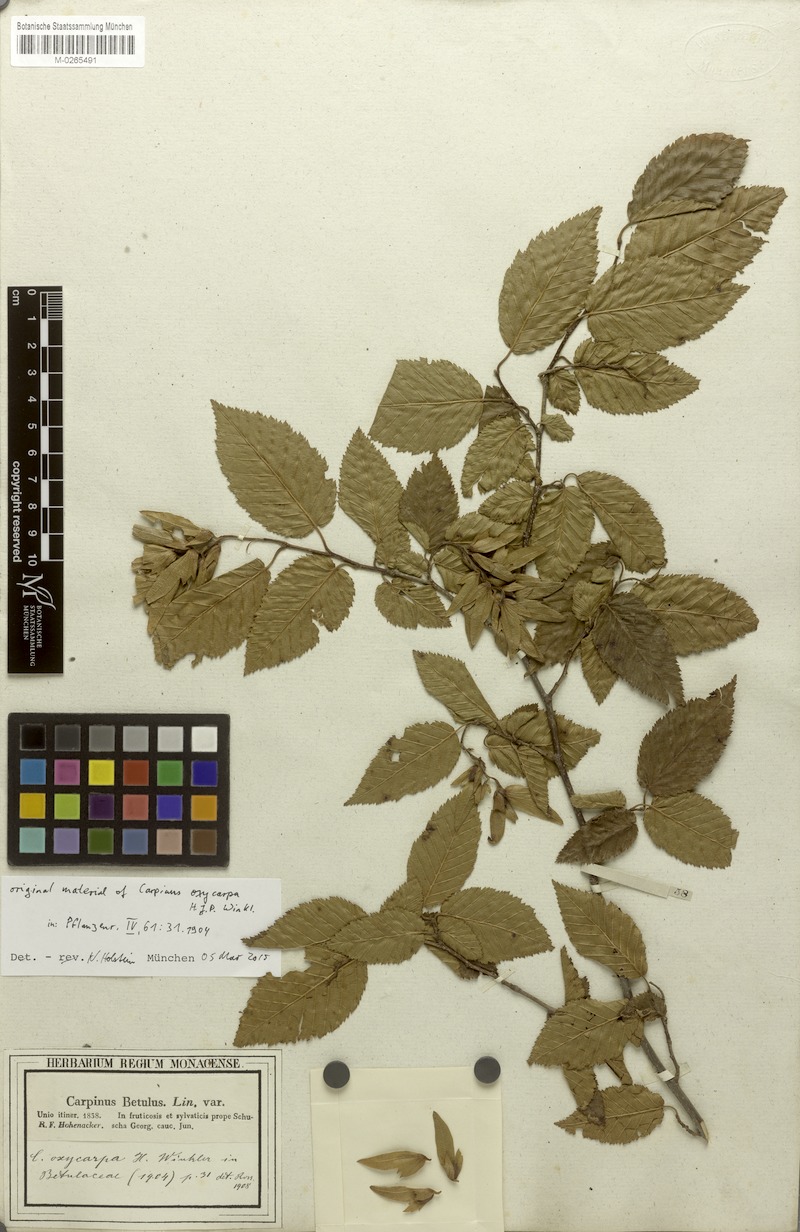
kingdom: Plantae
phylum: Tracheophyta
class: Magnoliopsida
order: Fagales
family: Betulaceae
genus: Carpinus
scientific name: Carpinus schuschaensis
